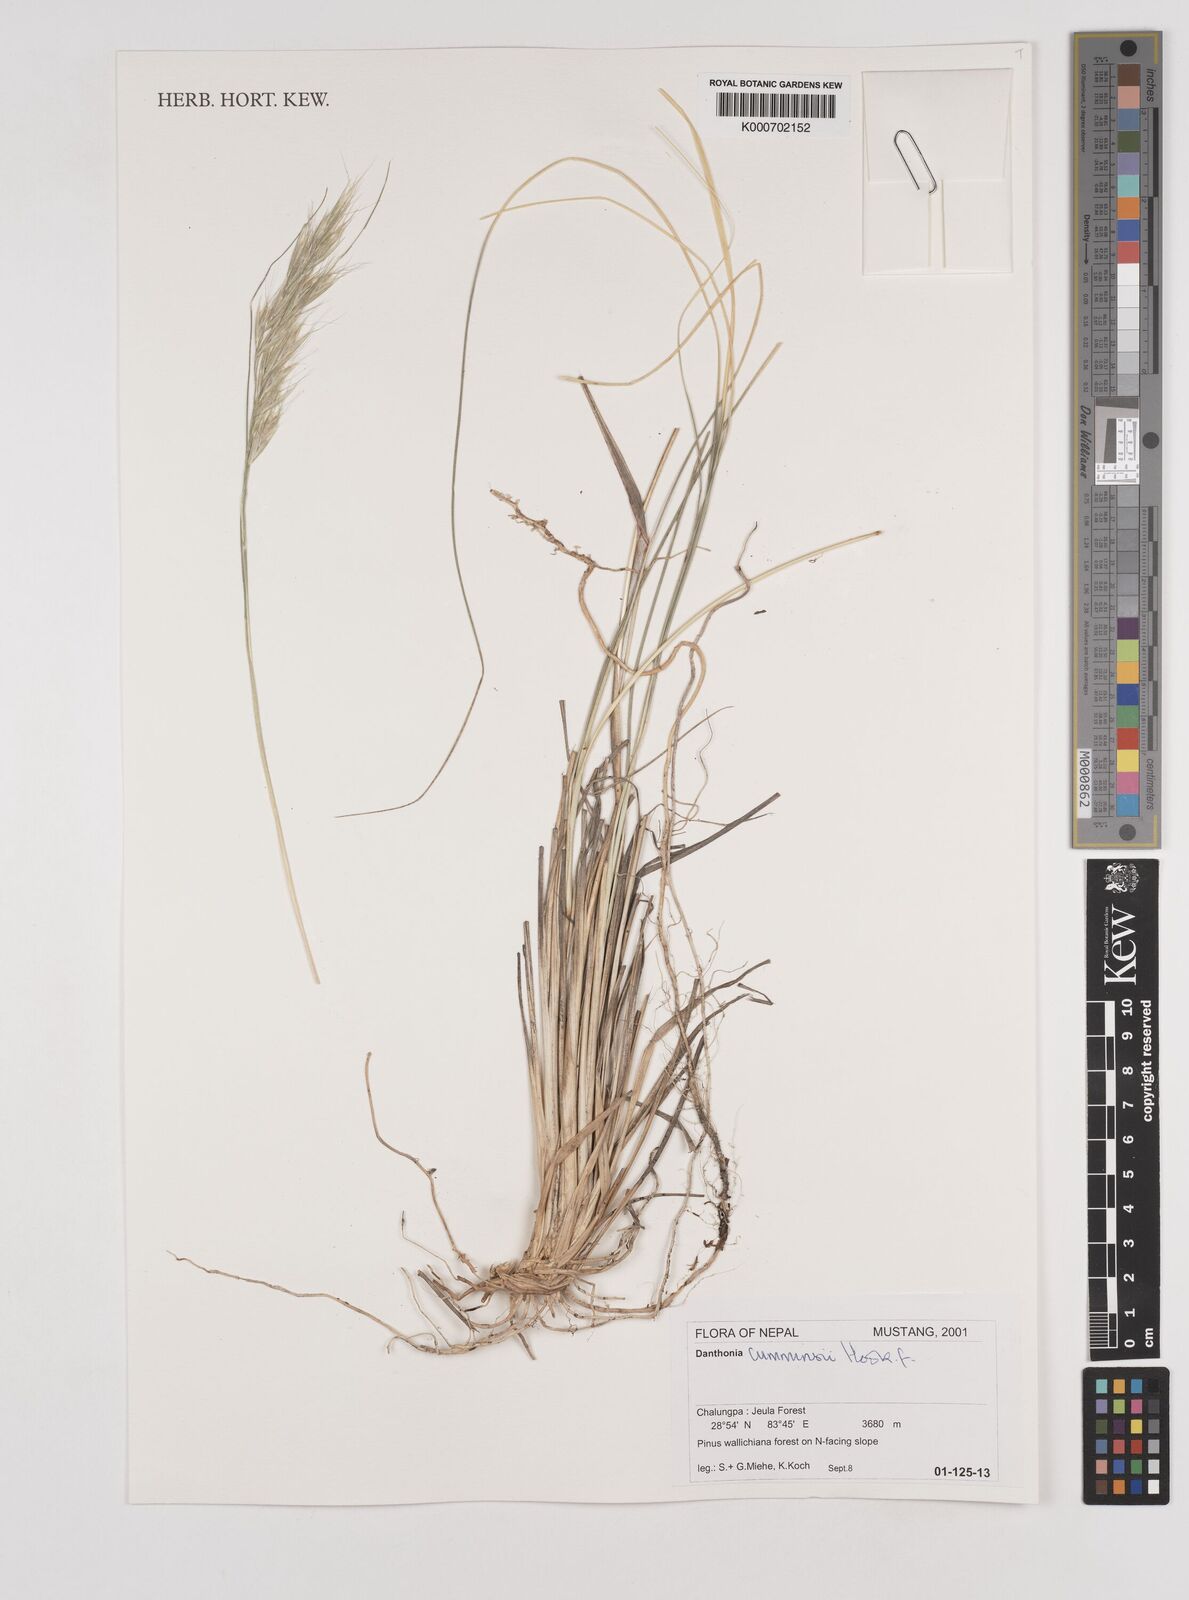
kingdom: Plantae
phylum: Tracheophyta
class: Liliopsida
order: Poales
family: Poaceae
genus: Tenaxia
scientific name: Tenaxia cumminsii
